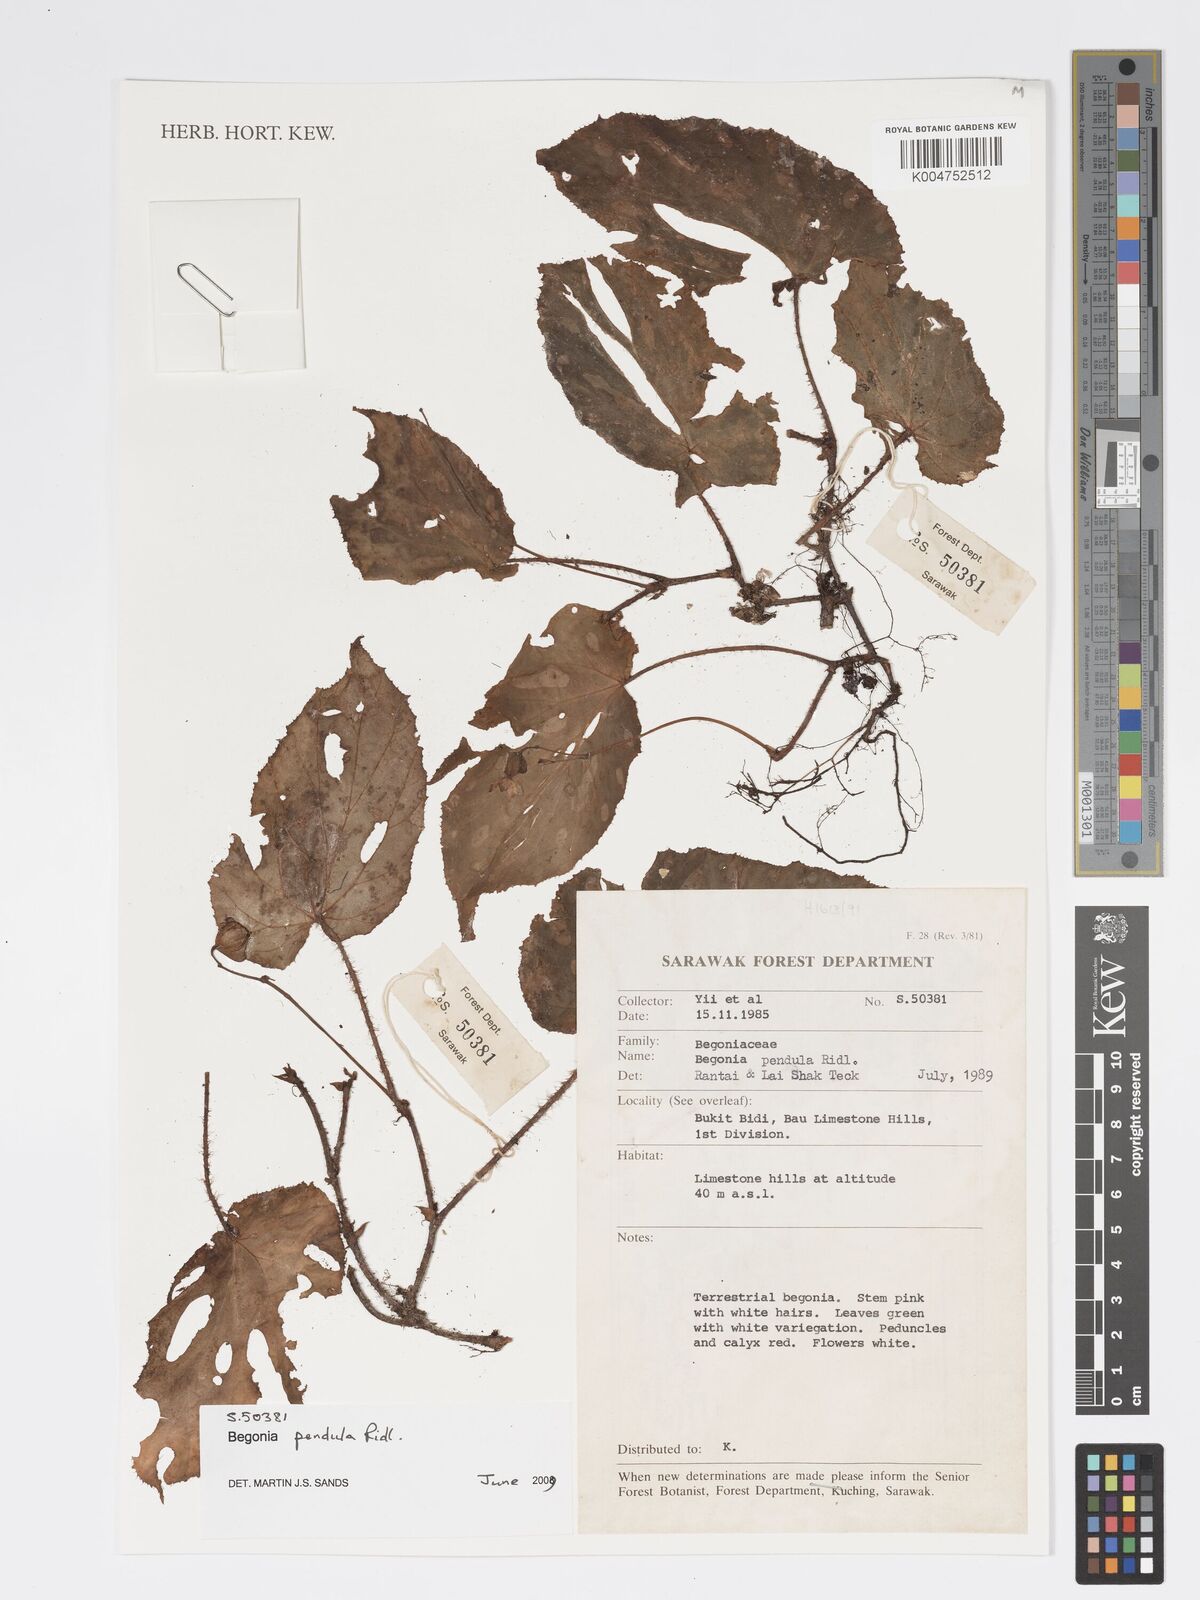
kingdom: Plantae
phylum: Tracheophyta
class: Magnoliopsida
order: Cucurbitales
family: Begoniaceae
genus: Begonia
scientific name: Begonia
